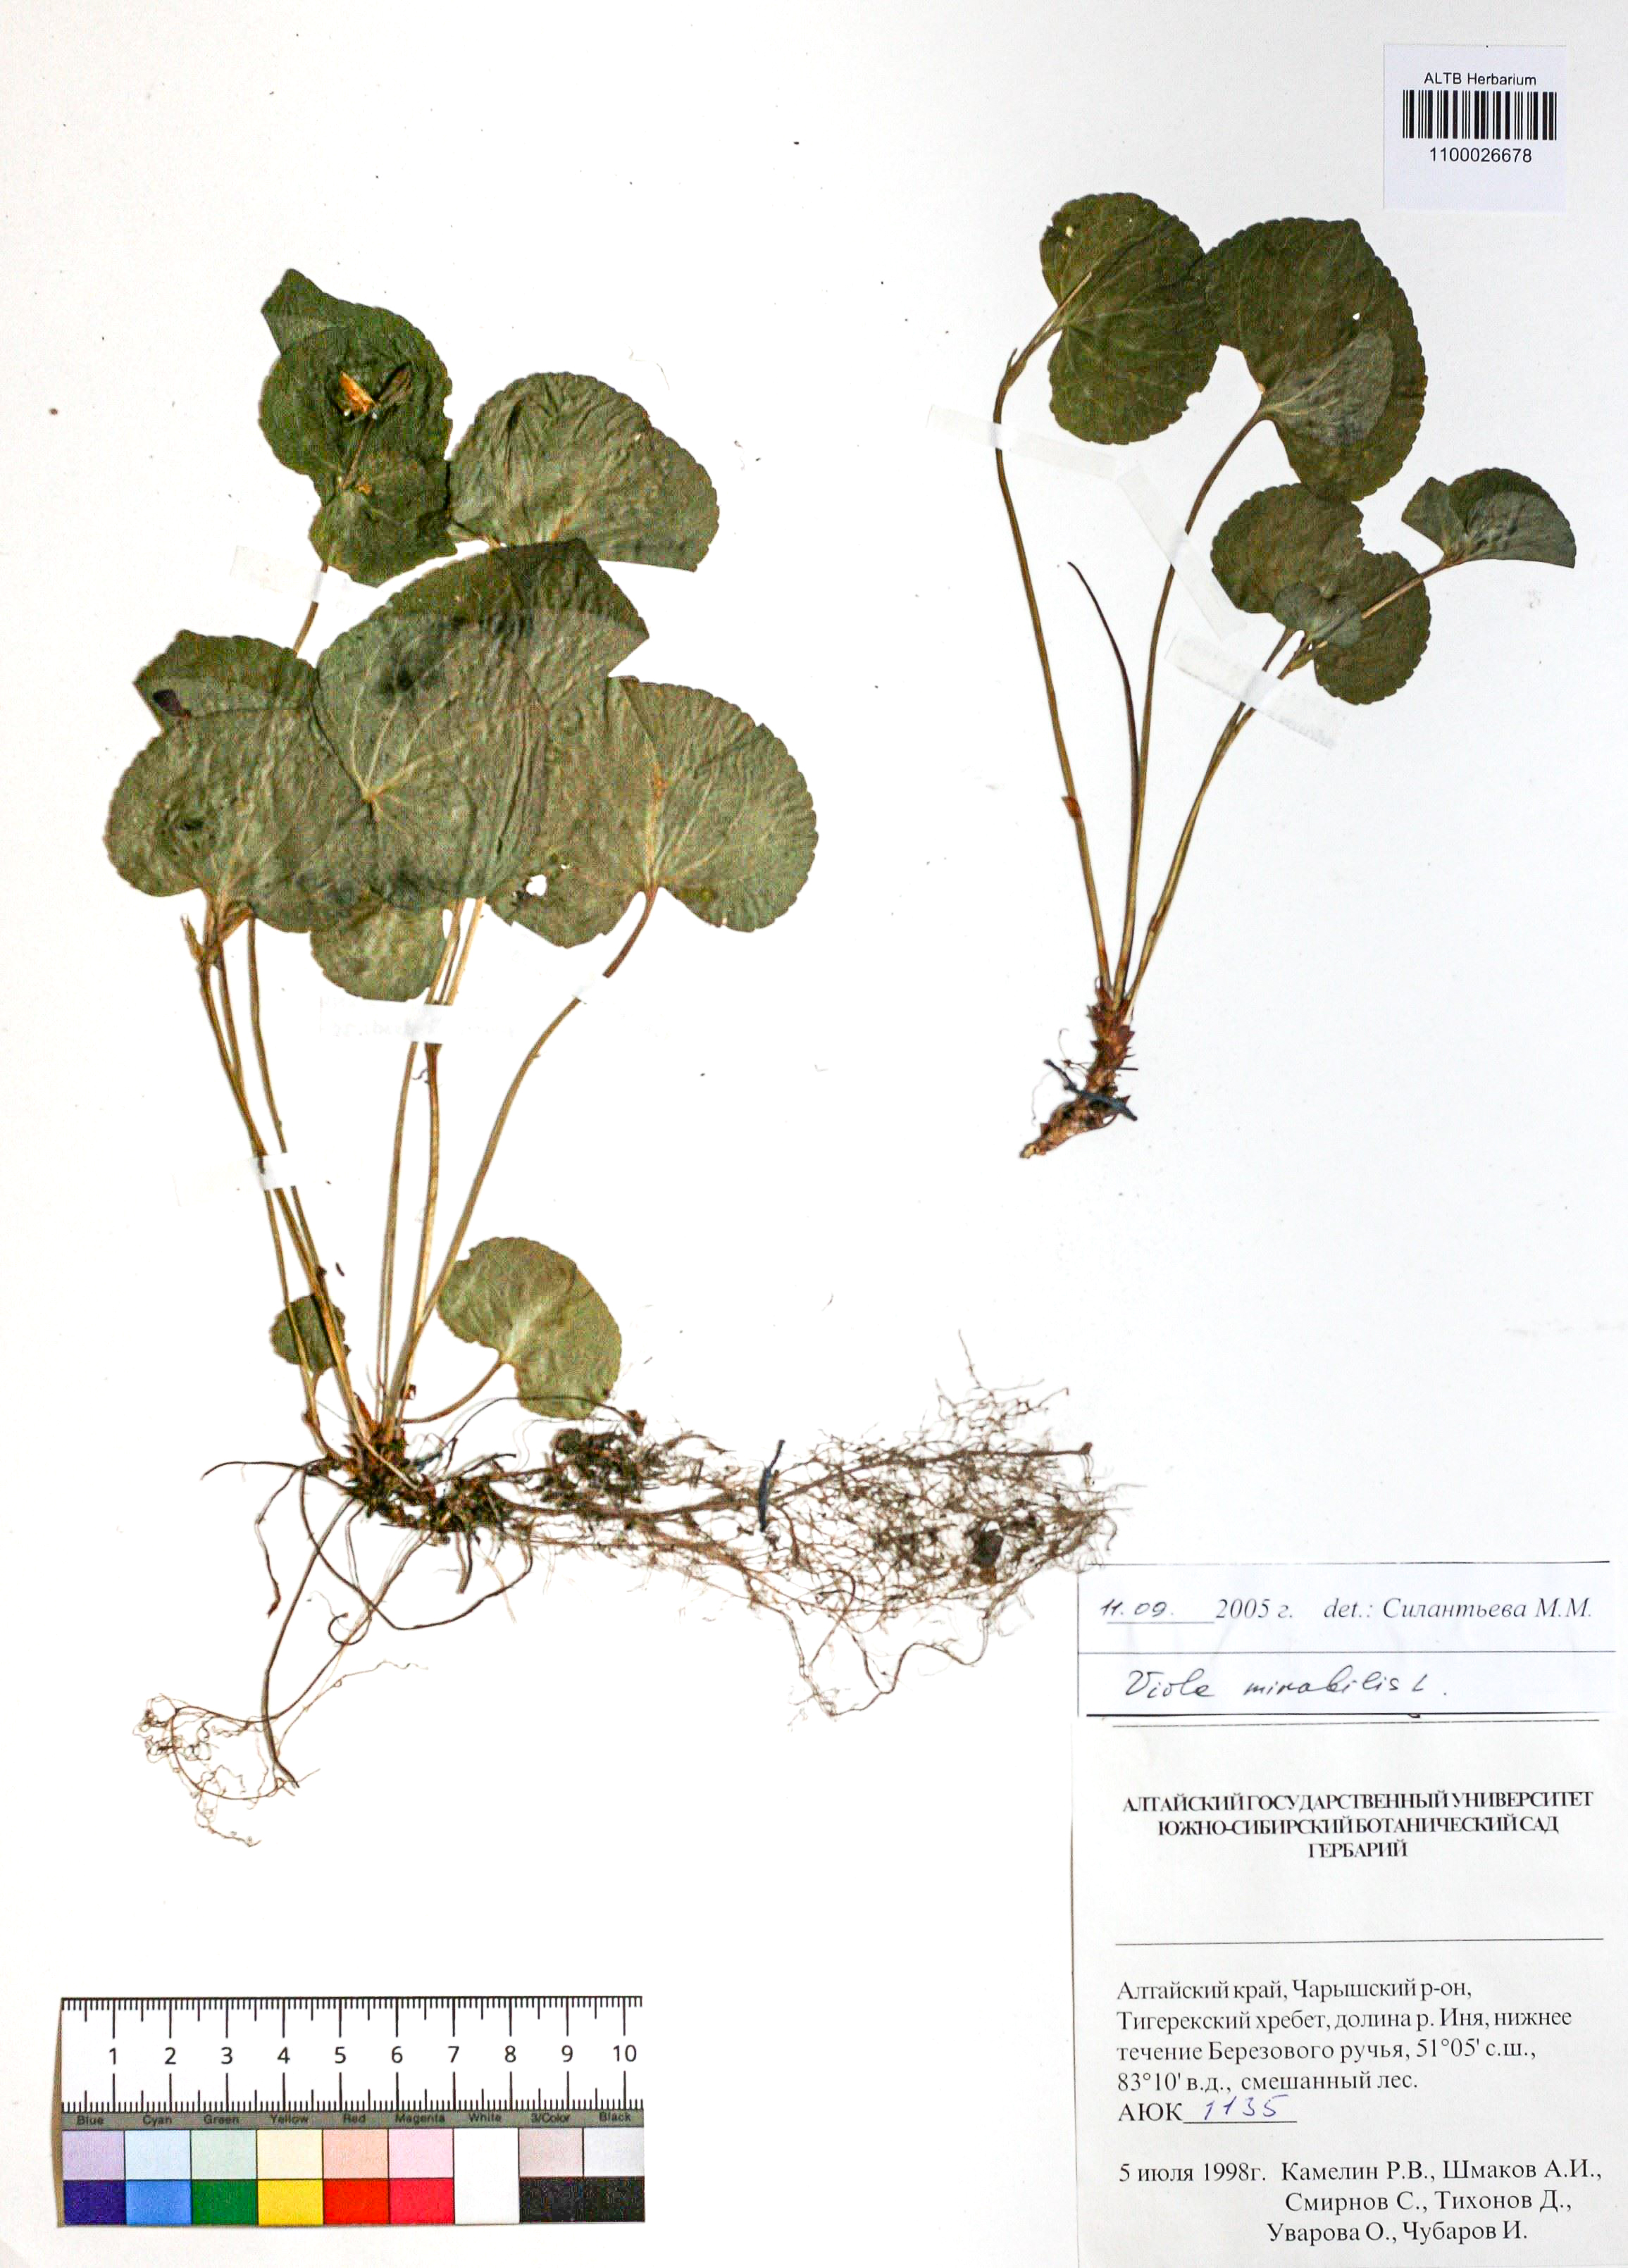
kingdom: Plantae
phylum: Tracheophyta
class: Magnoliopsida
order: Malpighiales
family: Violaceae
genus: Viola
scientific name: Viola mirabilis
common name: Wonder violet
